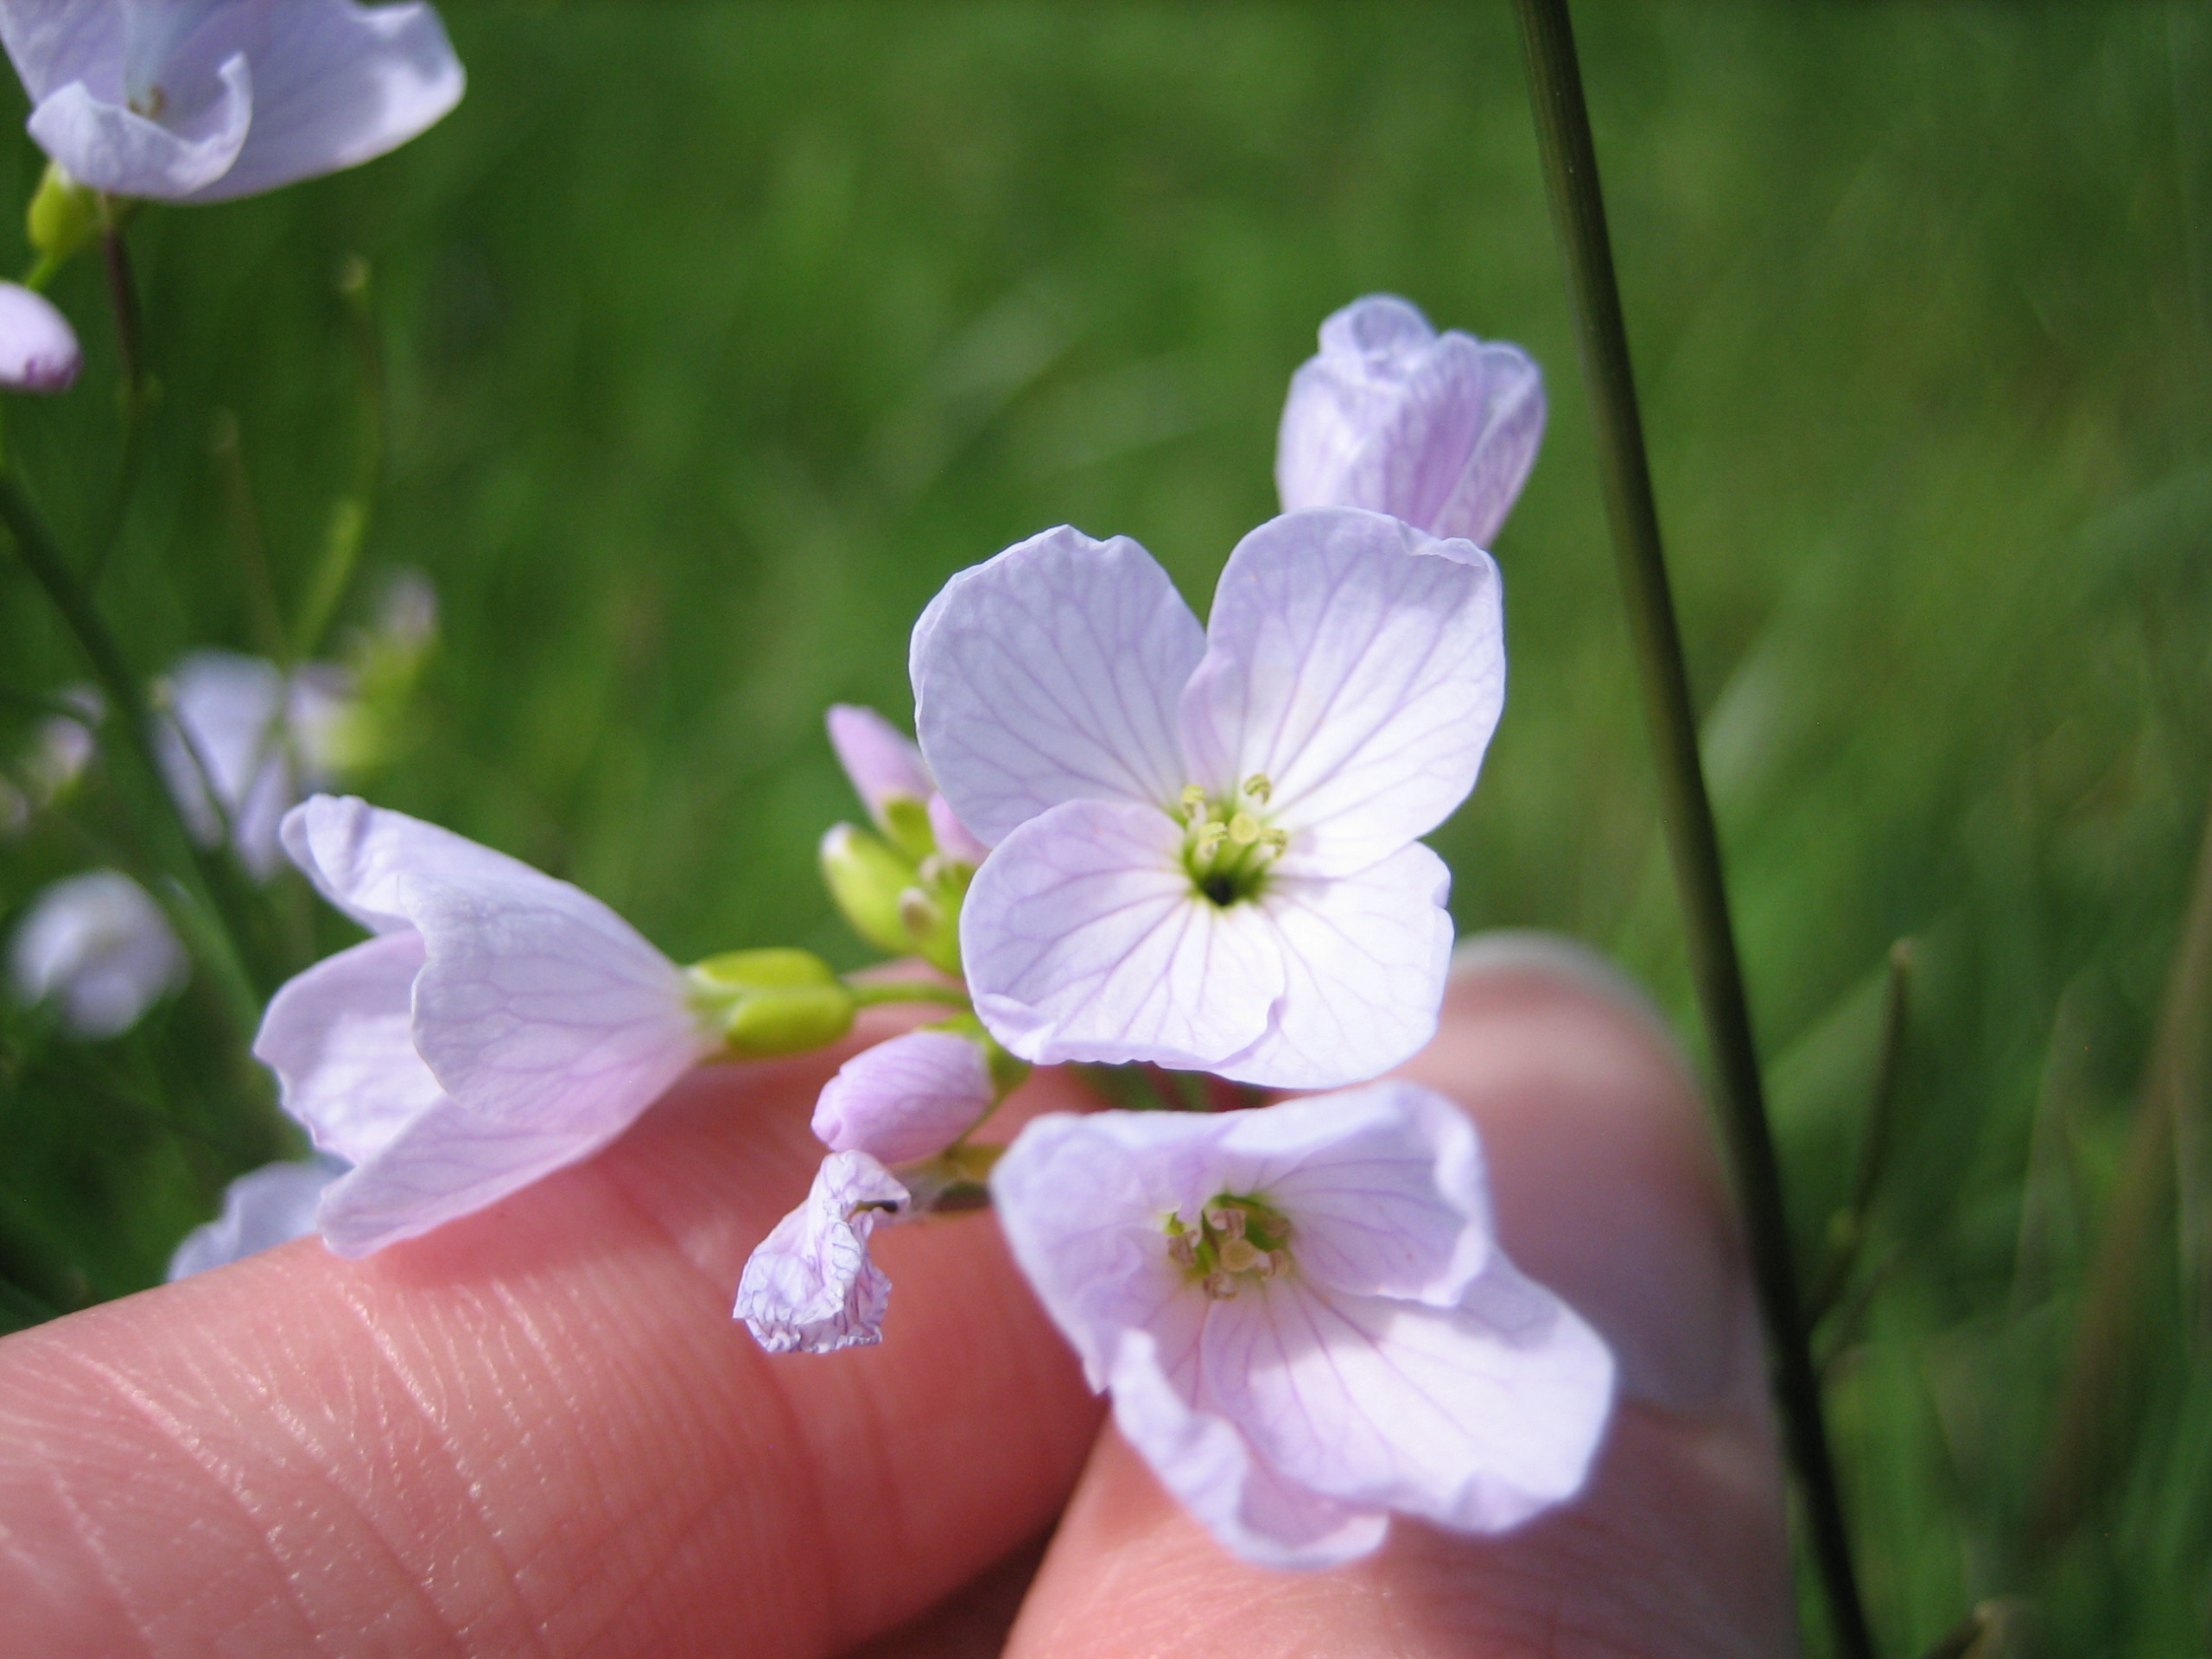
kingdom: Plantae
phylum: Tracheophyta
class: Magnoliopsida
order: Brassicales
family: Brassicaceae
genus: Cardamine
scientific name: Cardamine pratensis
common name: Engkarse
